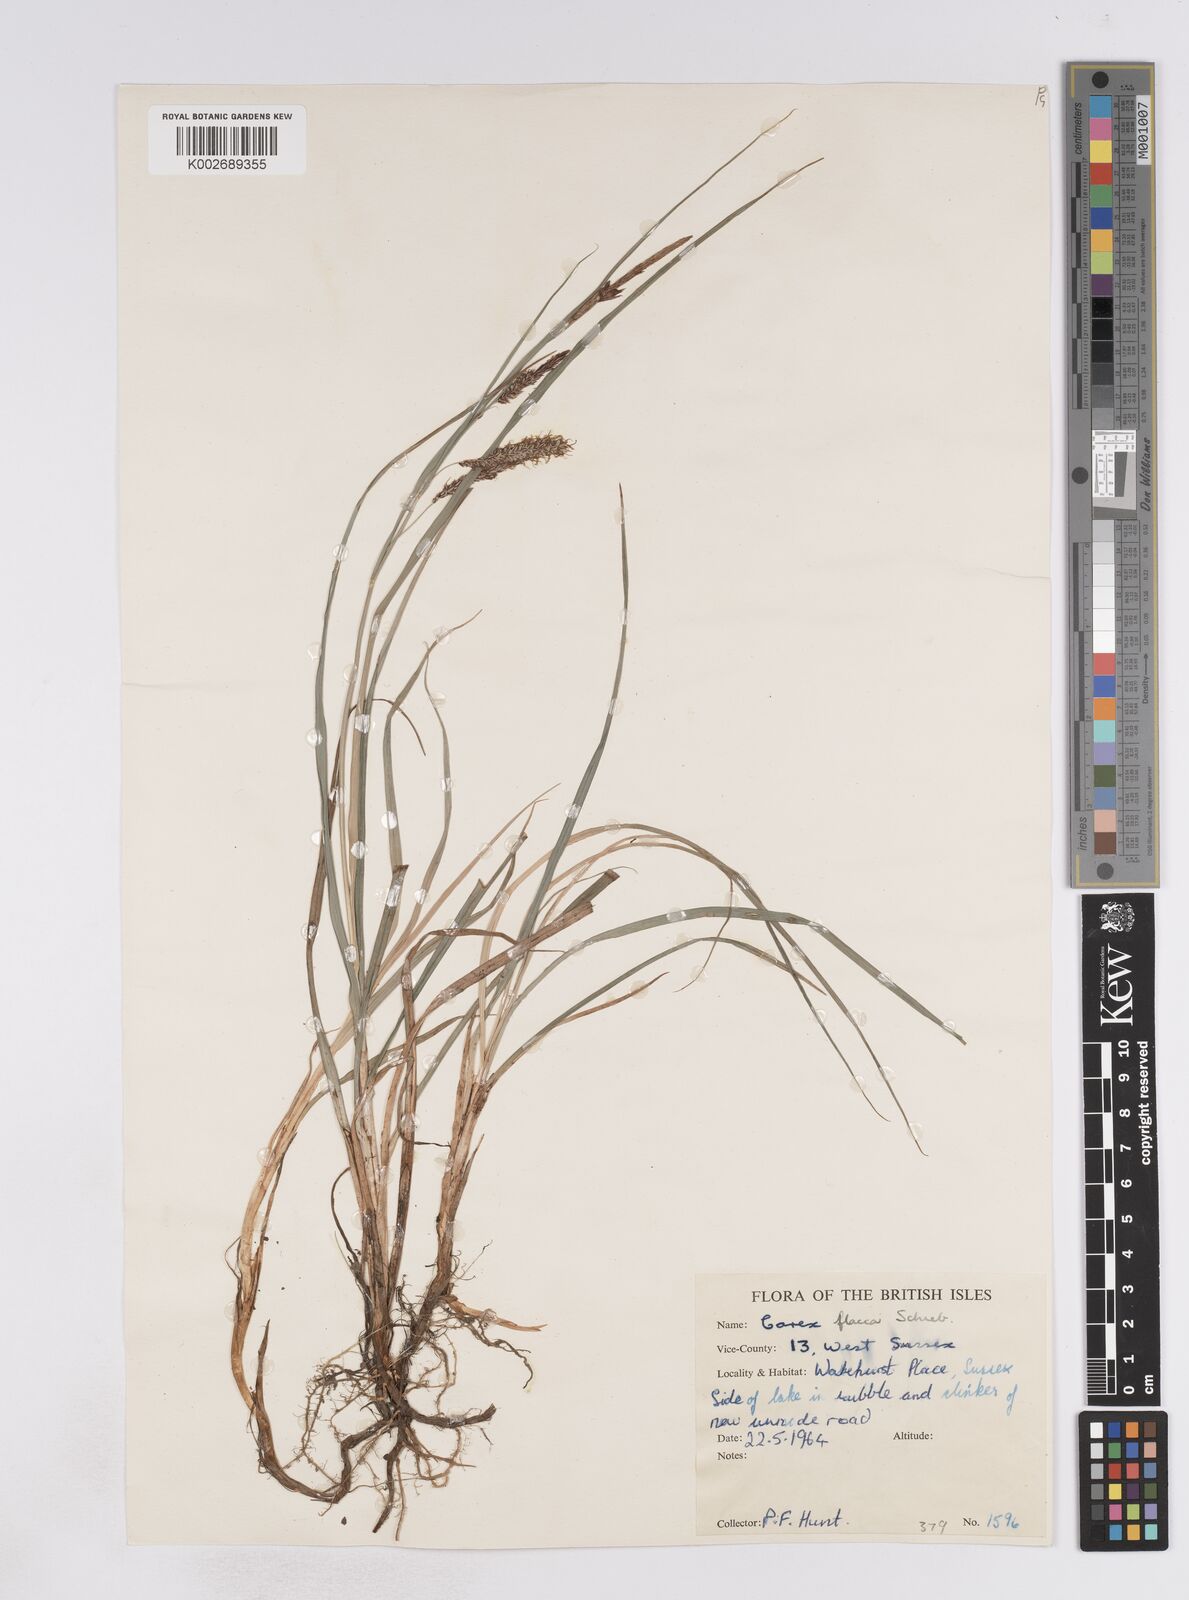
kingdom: Plantae
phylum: Tracheophyta
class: Liliopsida
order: Poales
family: Cyperaceae
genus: Carex
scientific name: Carex flacca
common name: Glaucous sedge
